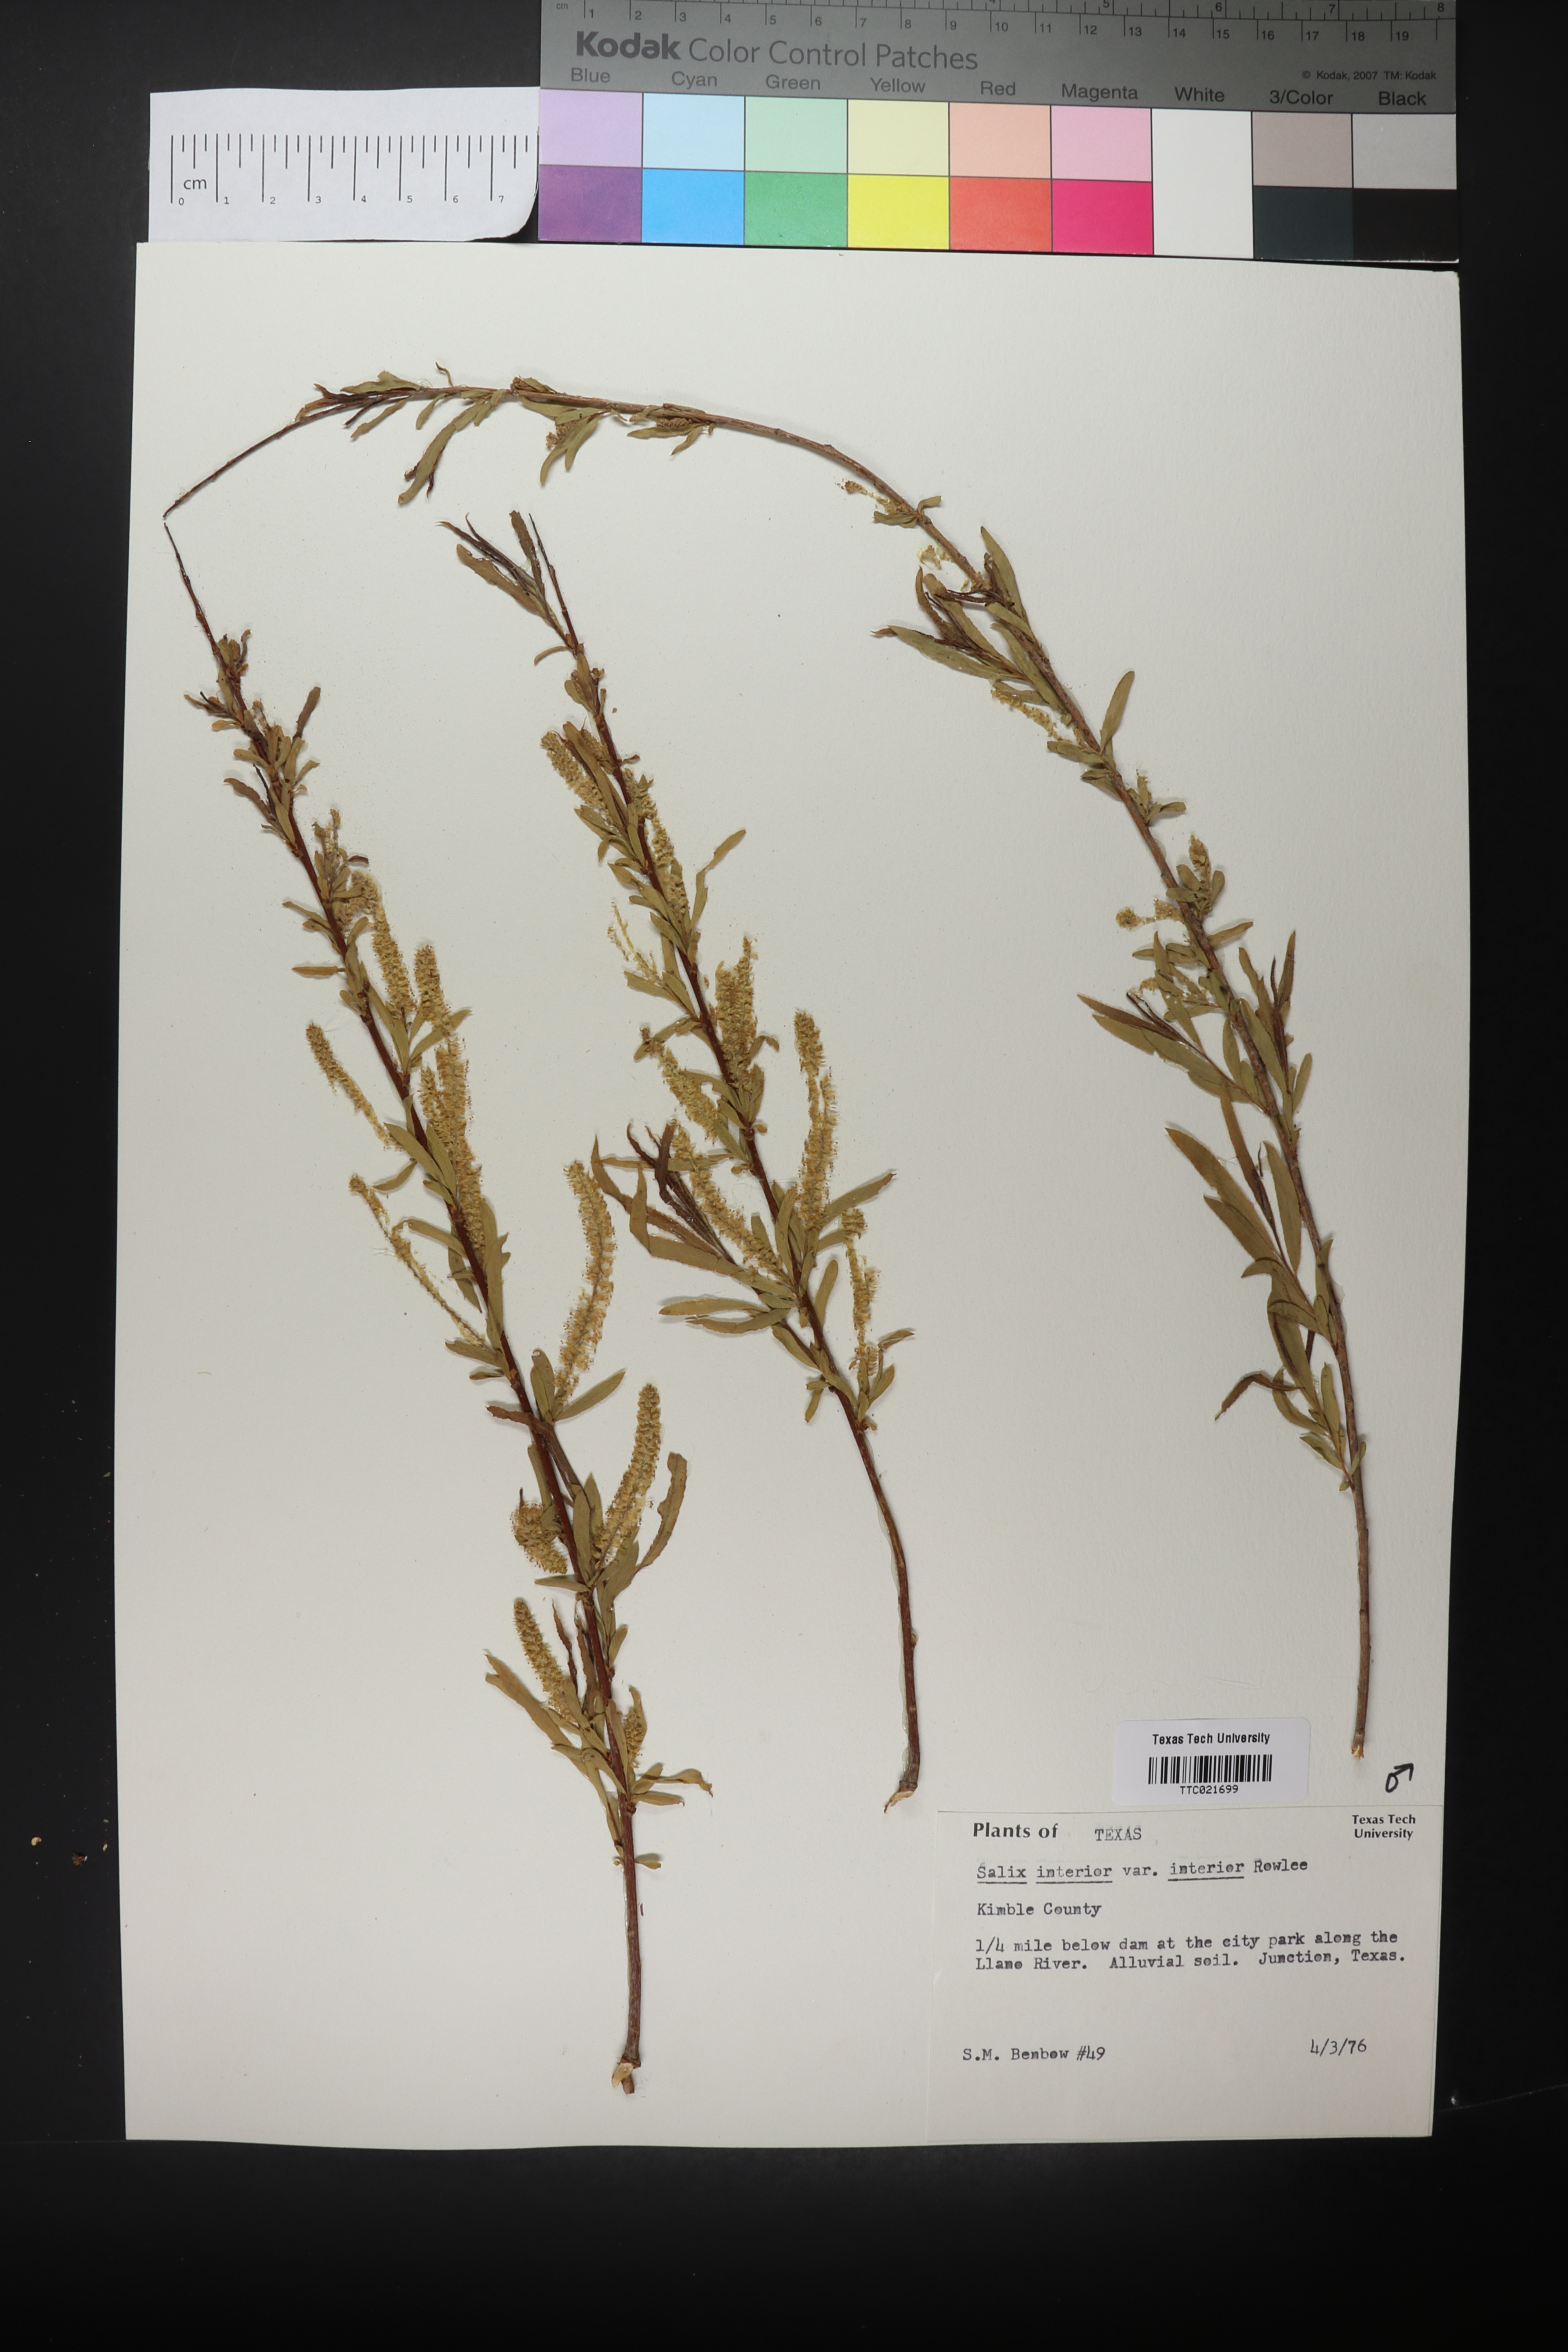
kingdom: Plantae
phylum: Tracheophyta
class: Magnoliopsida
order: Malpighiales
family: Salicaceae
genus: Salix
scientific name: Salix interior
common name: Sandbar willow
